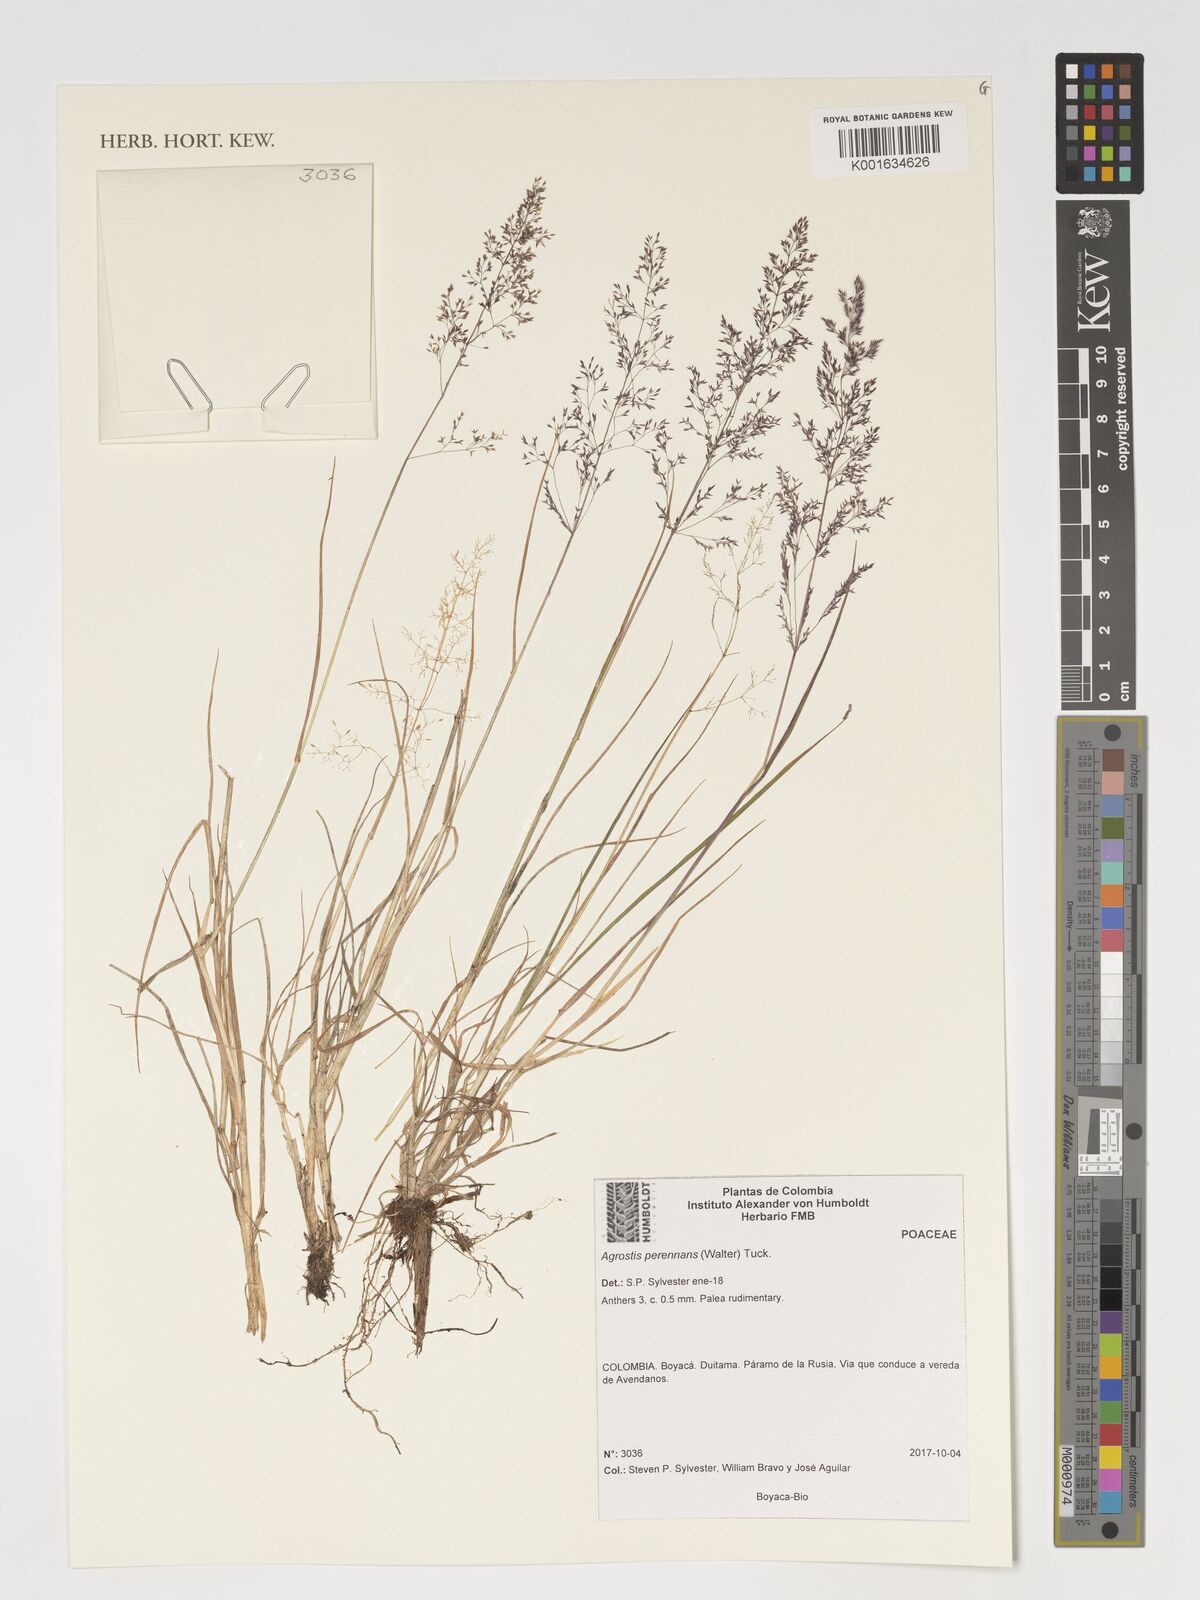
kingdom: Plantae
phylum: Tracheophyta
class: Liliopsida
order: Poales
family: Poaceae
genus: Agrostis
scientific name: Agrostis perennans
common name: Autumn bent
